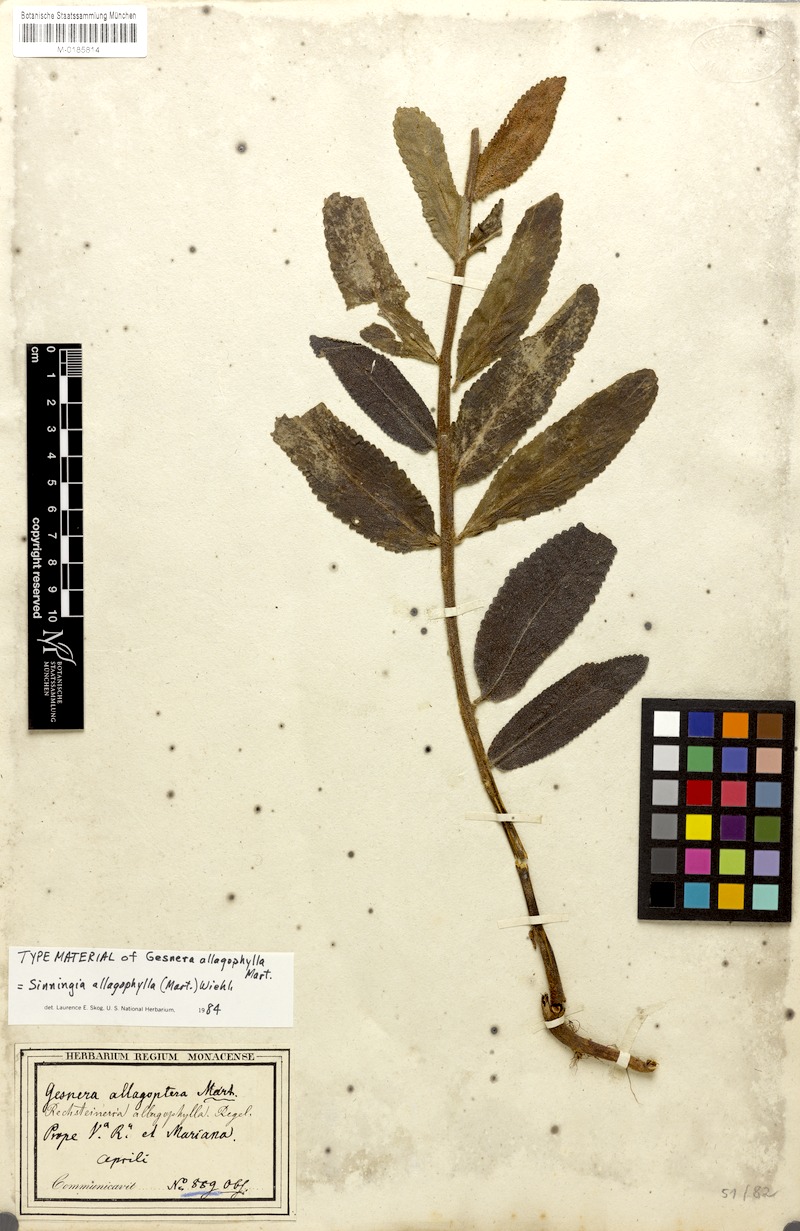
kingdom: Plantae
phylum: Tracheophyta
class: Magnoliopsida
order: Lamiales
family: Gesneriaceae
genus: Sinningia
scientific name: Sinningia allagophylla
